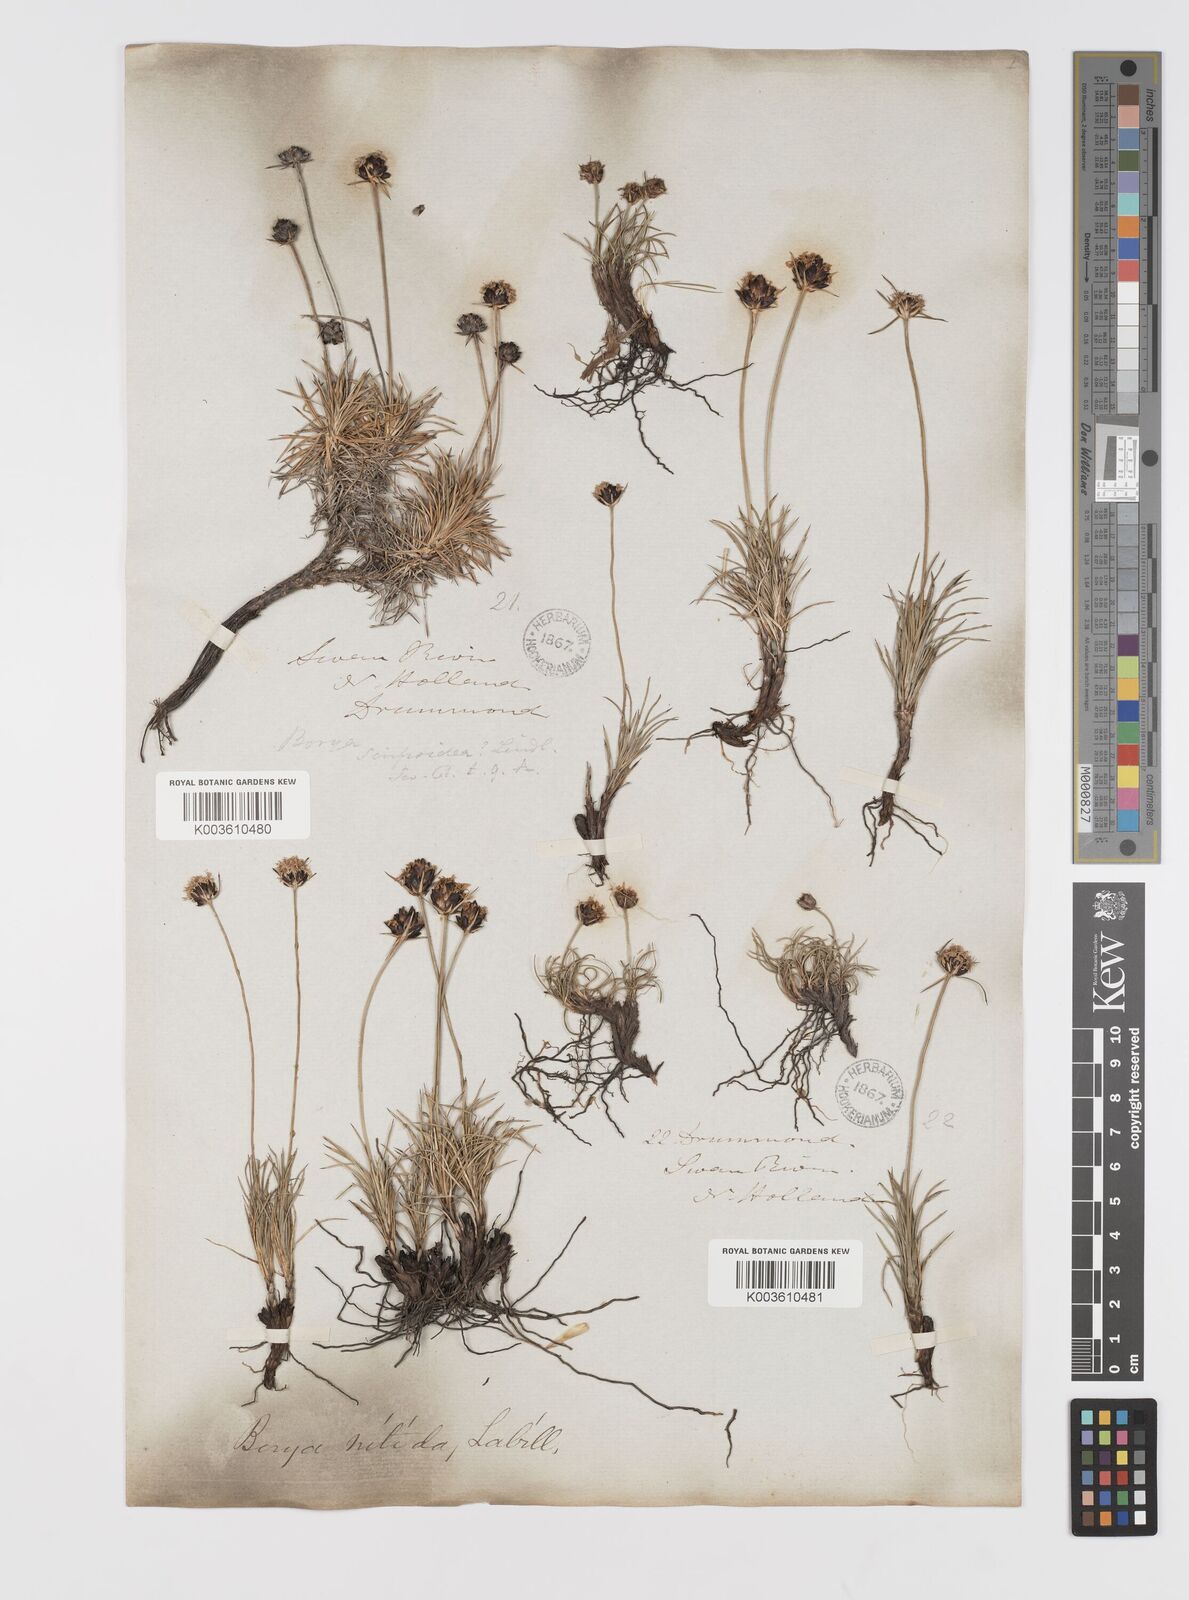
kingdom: Plantae
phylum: Tracheophyta
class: Liliopsida
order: Asparagales
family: Boryaceae
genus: Borya
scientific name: Borya nitida
